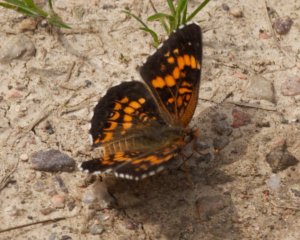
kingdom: Animalia
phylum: Arthropoda
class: Insecta
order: Lepidoptera
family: Nymphalidae
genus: Chlosyne
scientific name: Chlosyne harrisii
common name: Harris's Checkerspot
